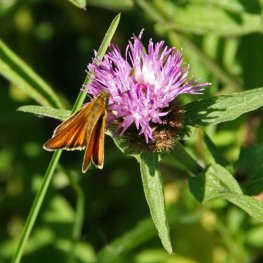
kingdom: Animalia
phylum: Arthropoda
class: Insecta
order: Lepidoptera
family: Hesperiidae
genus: Thymelicus
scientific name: Thymelicus lineola
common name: European Skipper
